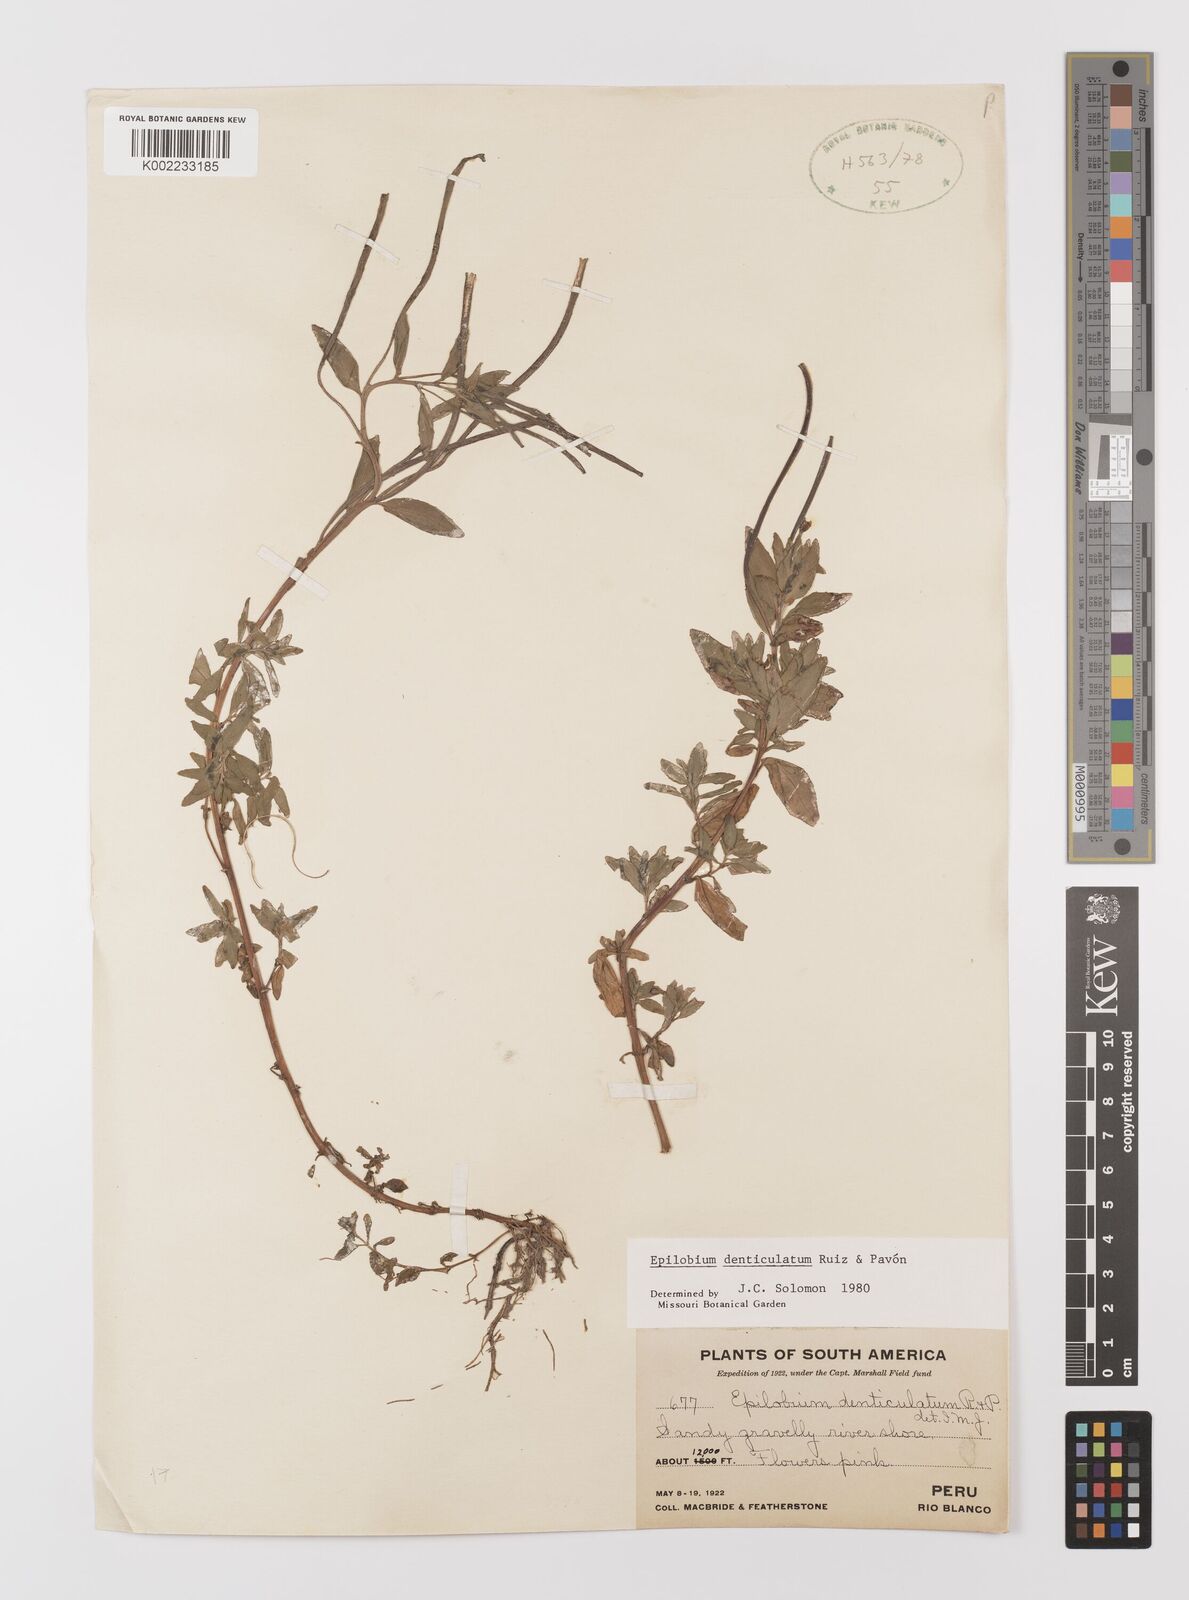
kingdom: Plantae
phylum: Tracheophyta
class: Magnoliopsida
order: Myrtales
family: Onagraceae
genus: Epilobium
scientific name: Epilobium denticulatum
